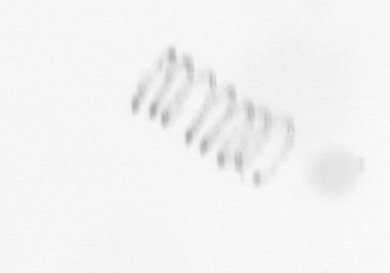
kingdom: Chromista
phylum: Ochrophyta
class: Bacillariophyceae
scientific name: Bacillariophyceae
